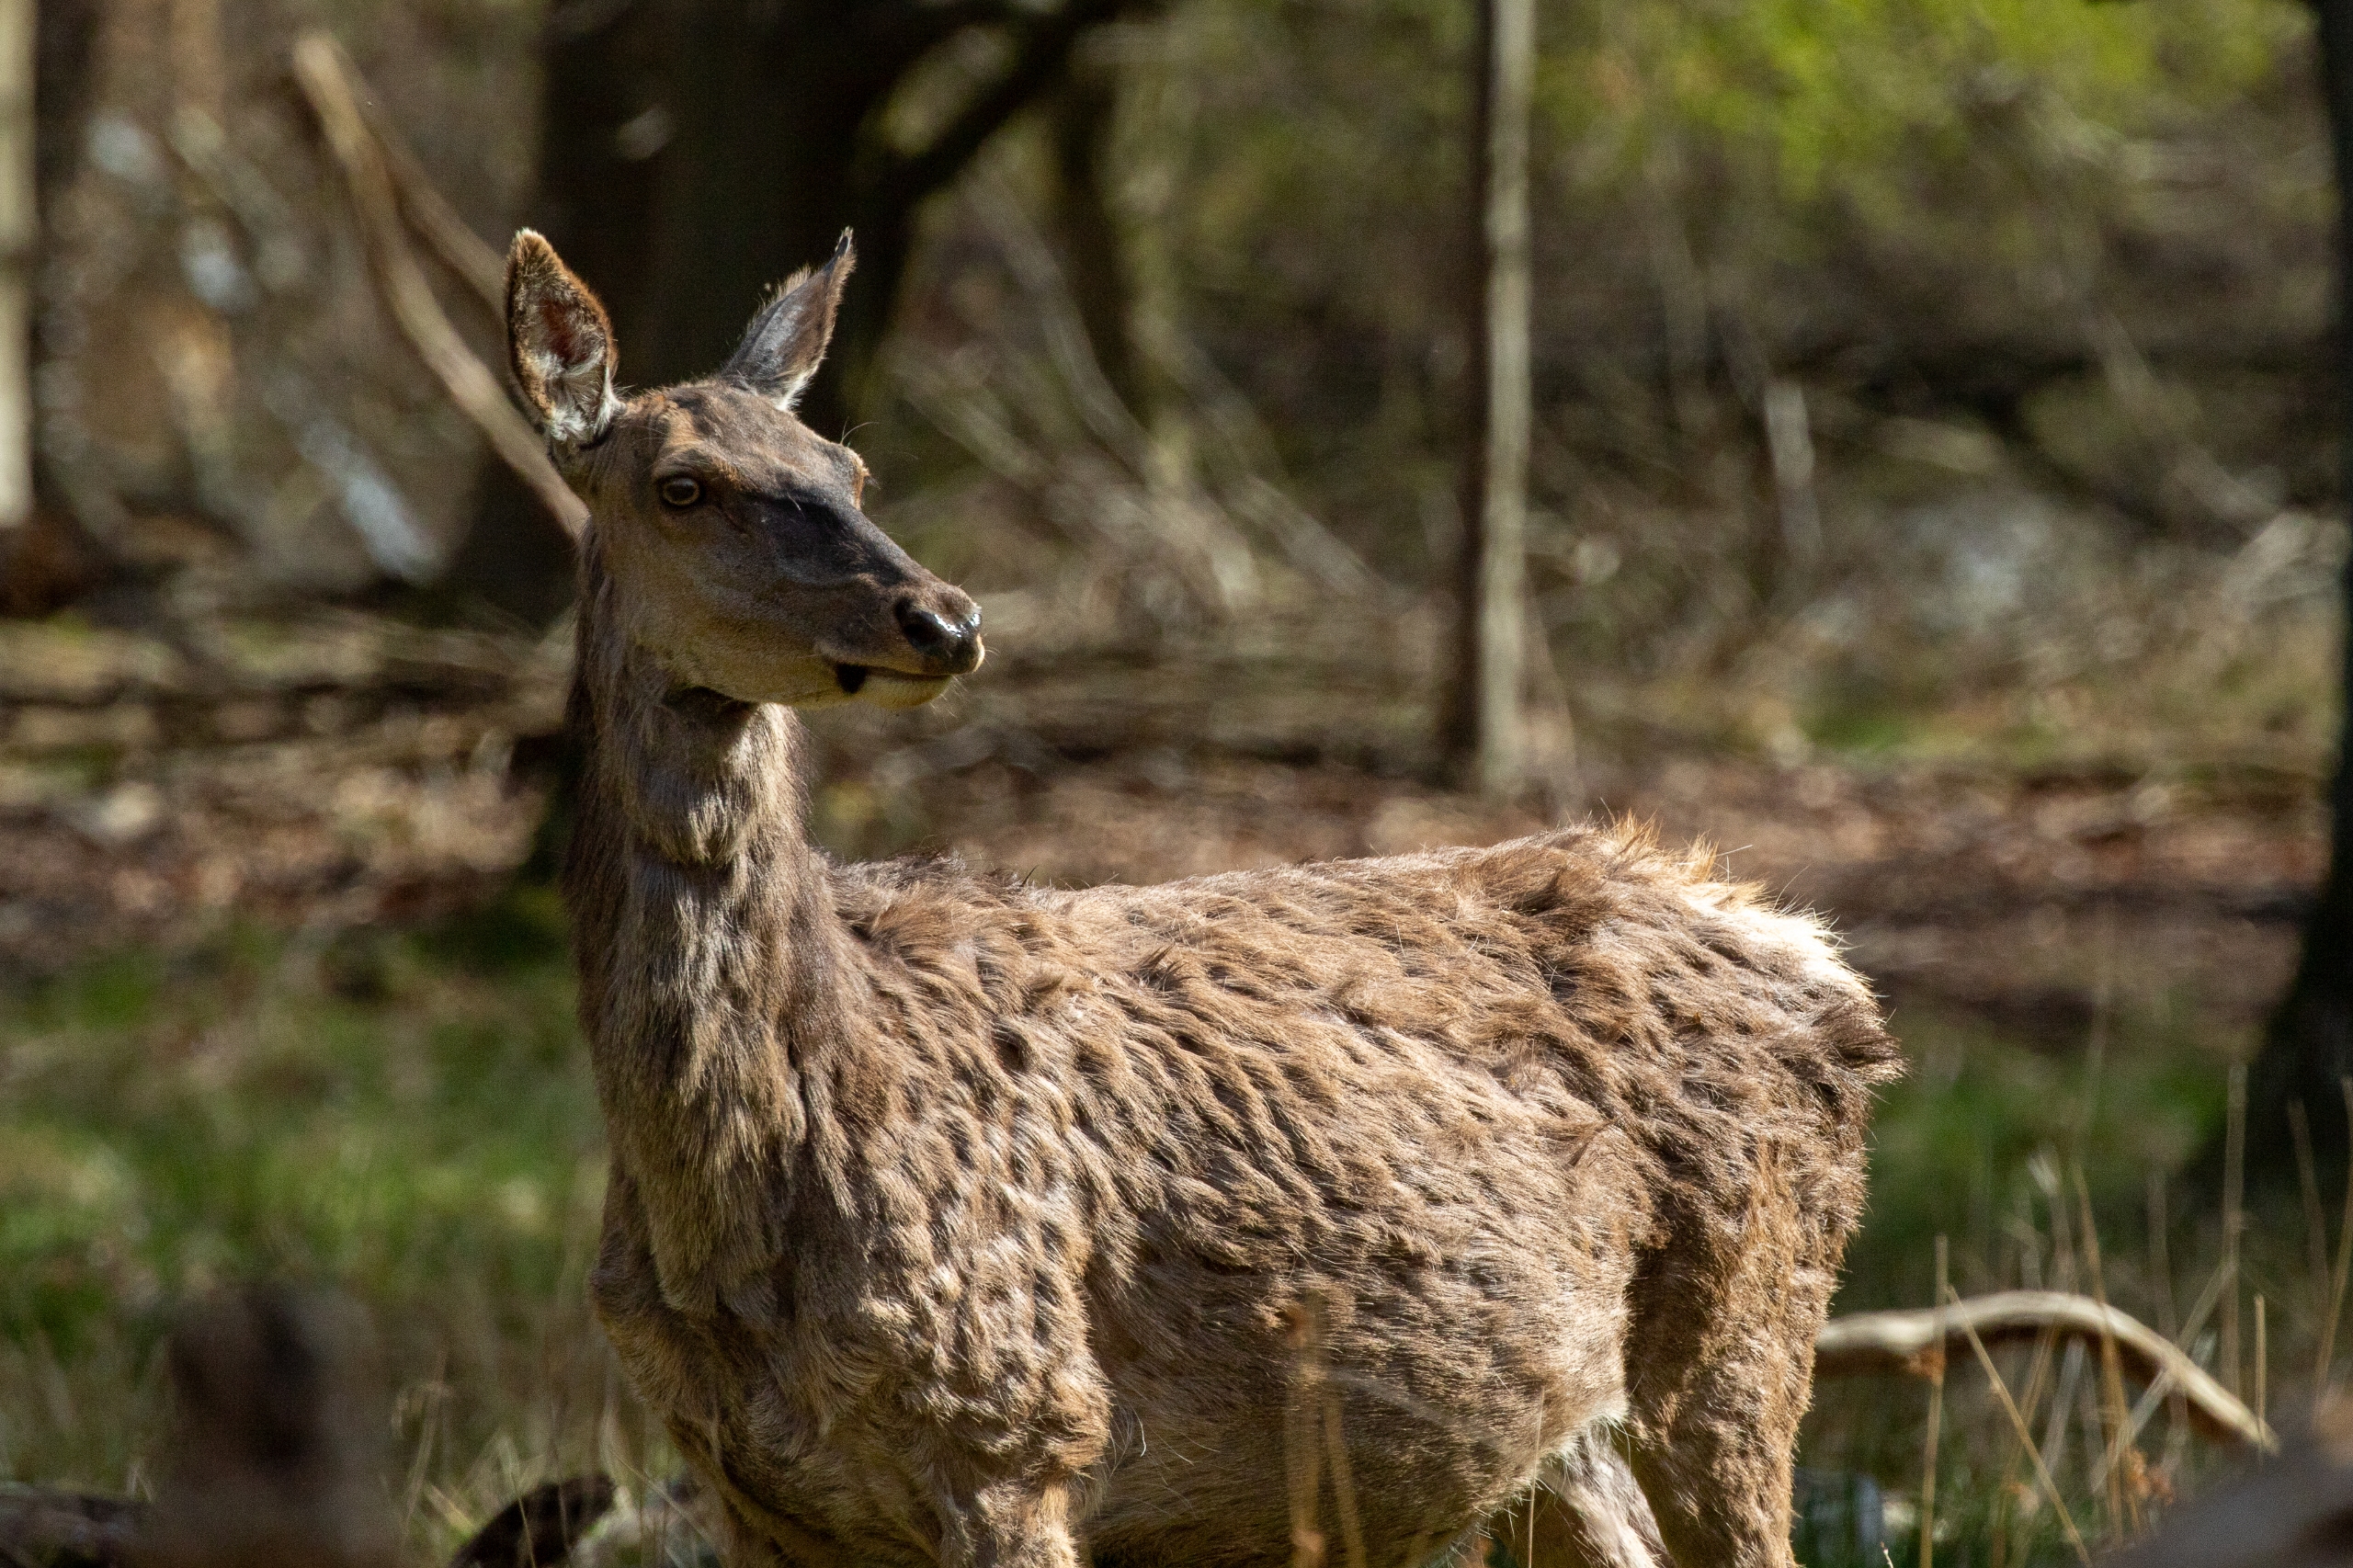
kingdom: Animalia
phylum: Chordata
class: Mammalia
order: Artiodactyla
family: Cervidae
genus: Cervus
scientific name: Cervus elaphus
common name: Krondyr
